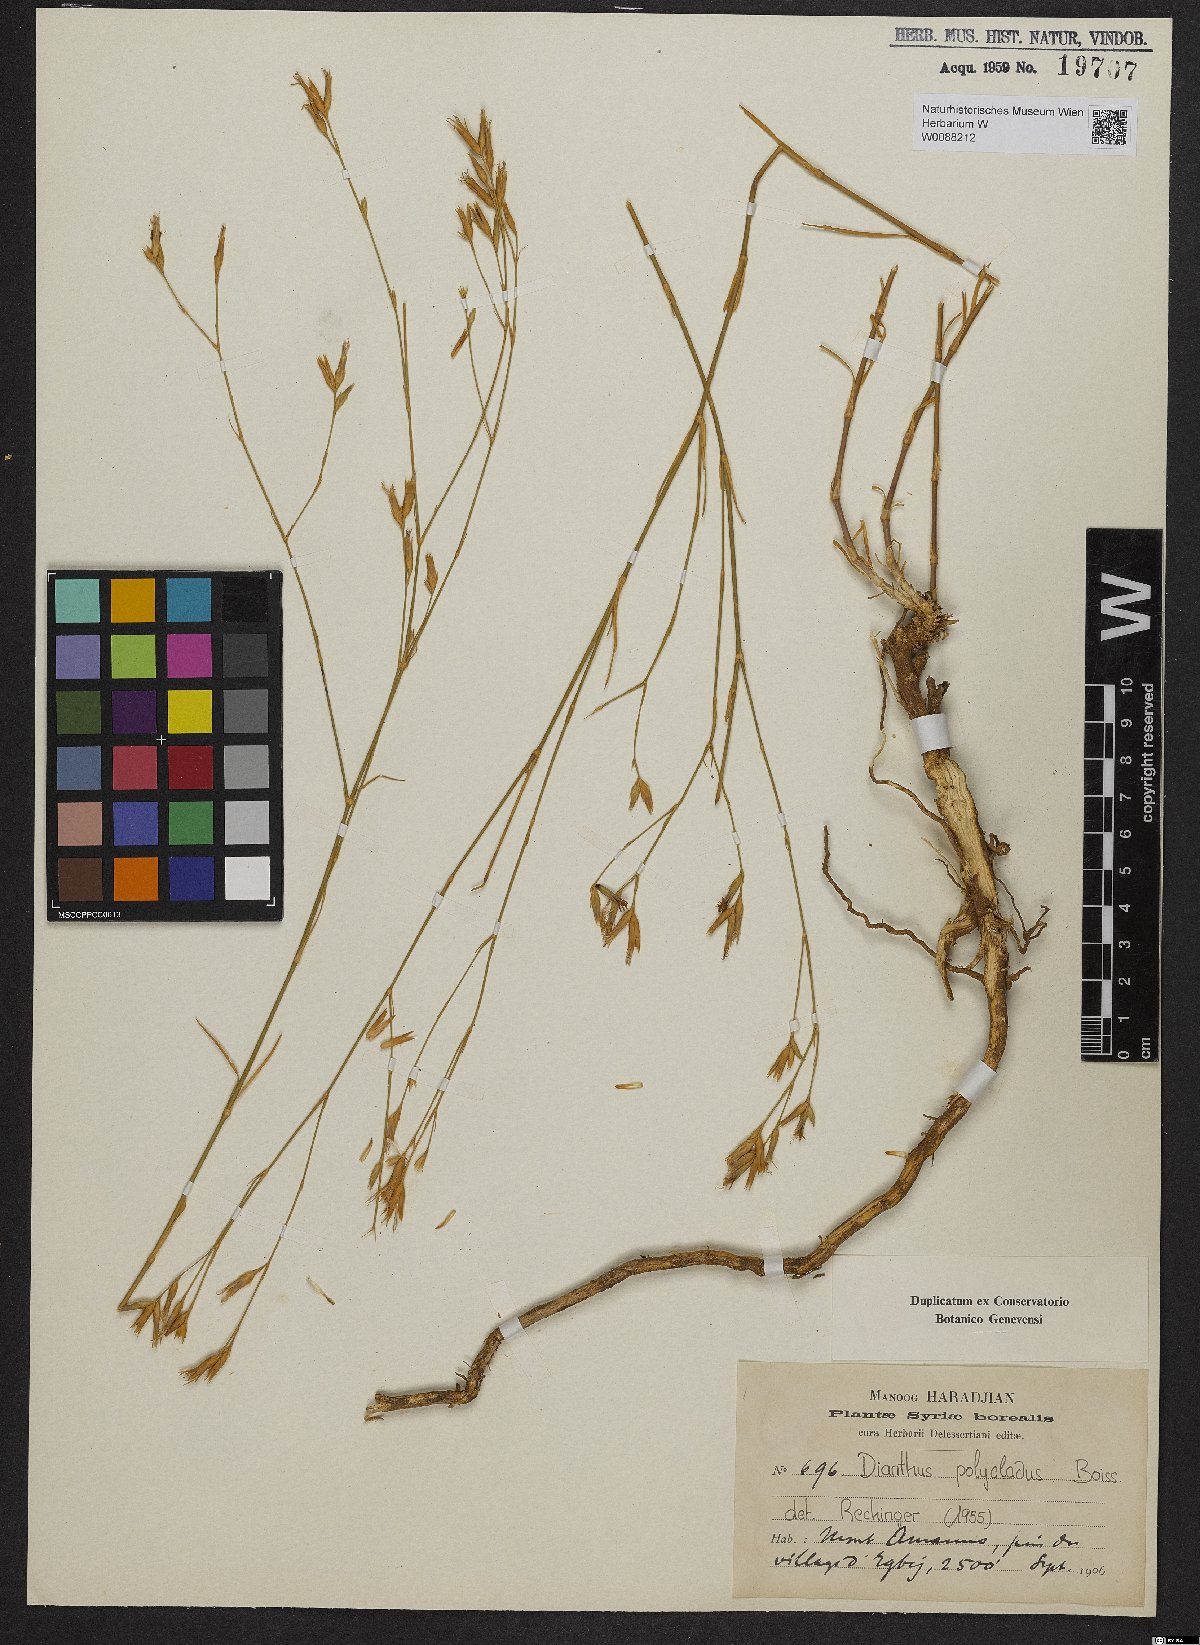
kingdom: Plantae
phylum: Tracheophyta
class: Magnoliopsida
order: Caryophyllales
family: Caryophyllaceae
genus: Dianthus
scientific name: Dianthus strictus
